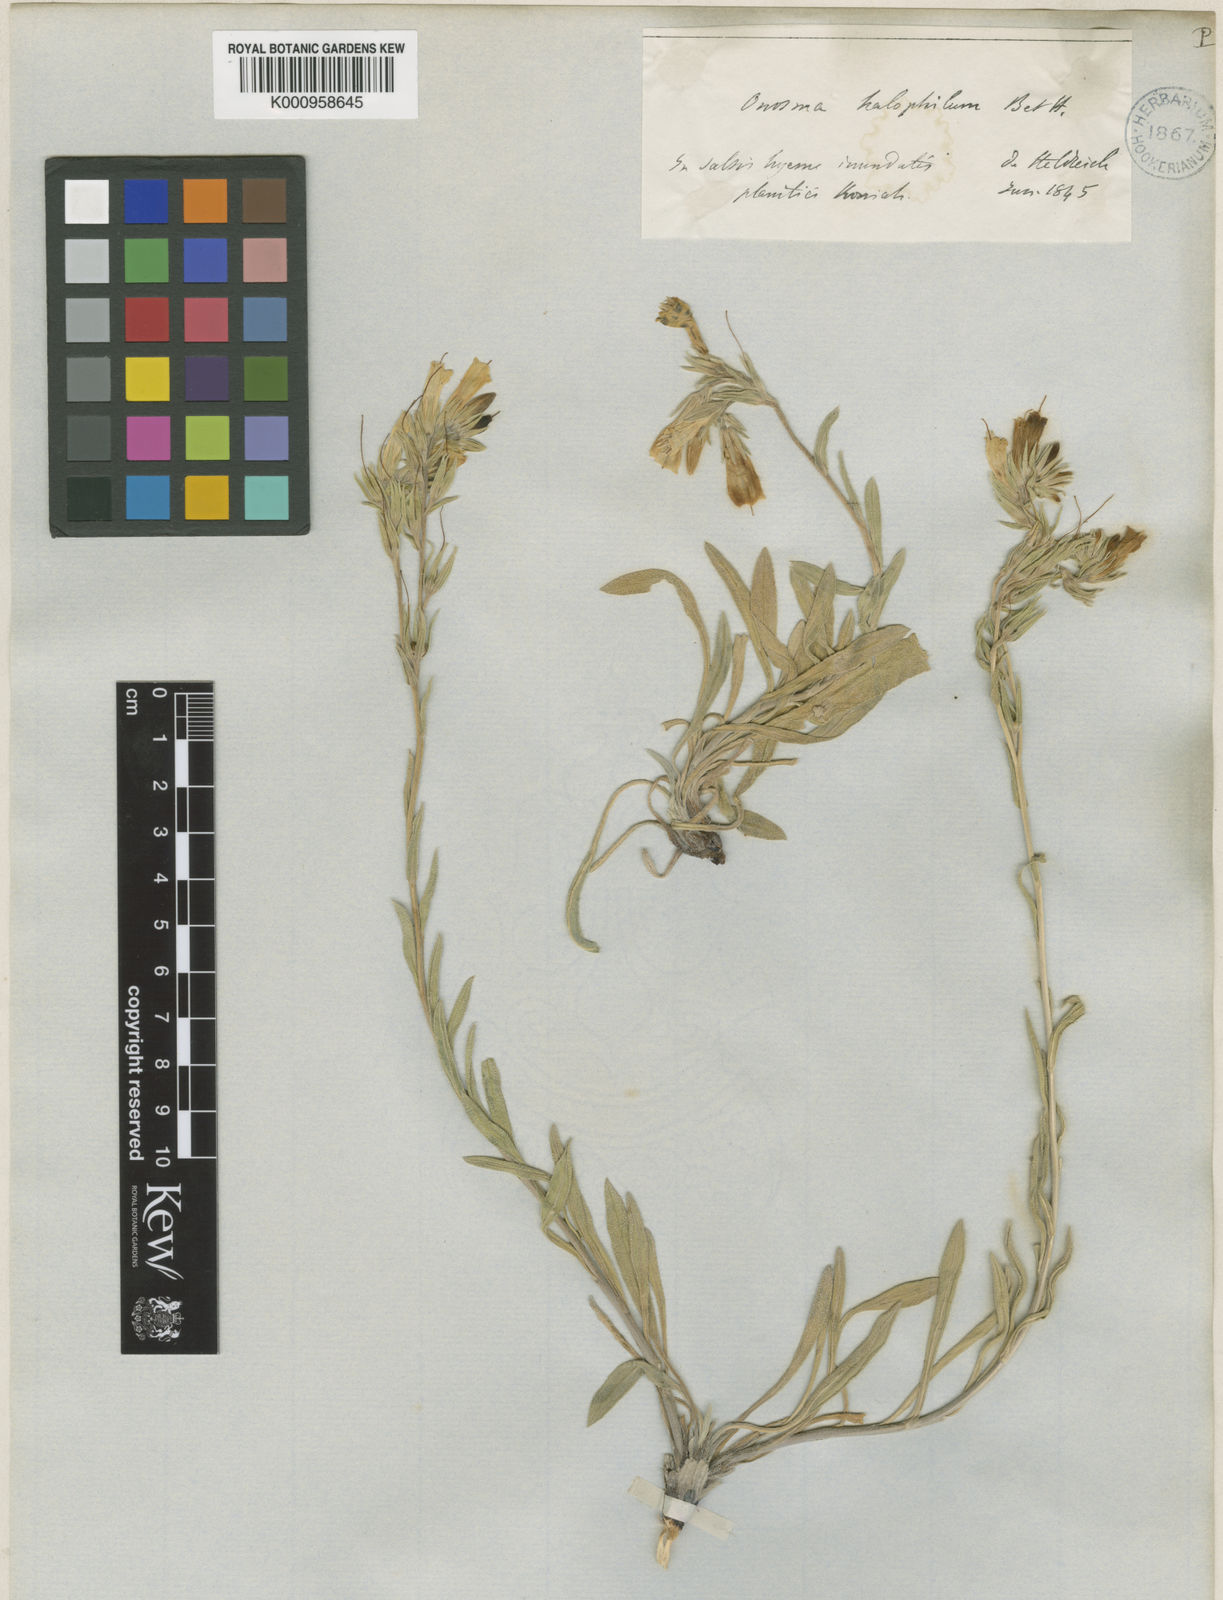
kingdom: Plantae
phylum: Tracheophyta
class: Magnoliopsida
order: Boraginales
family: Boraginaceae
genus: Onosma
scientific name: Onosma halophila
